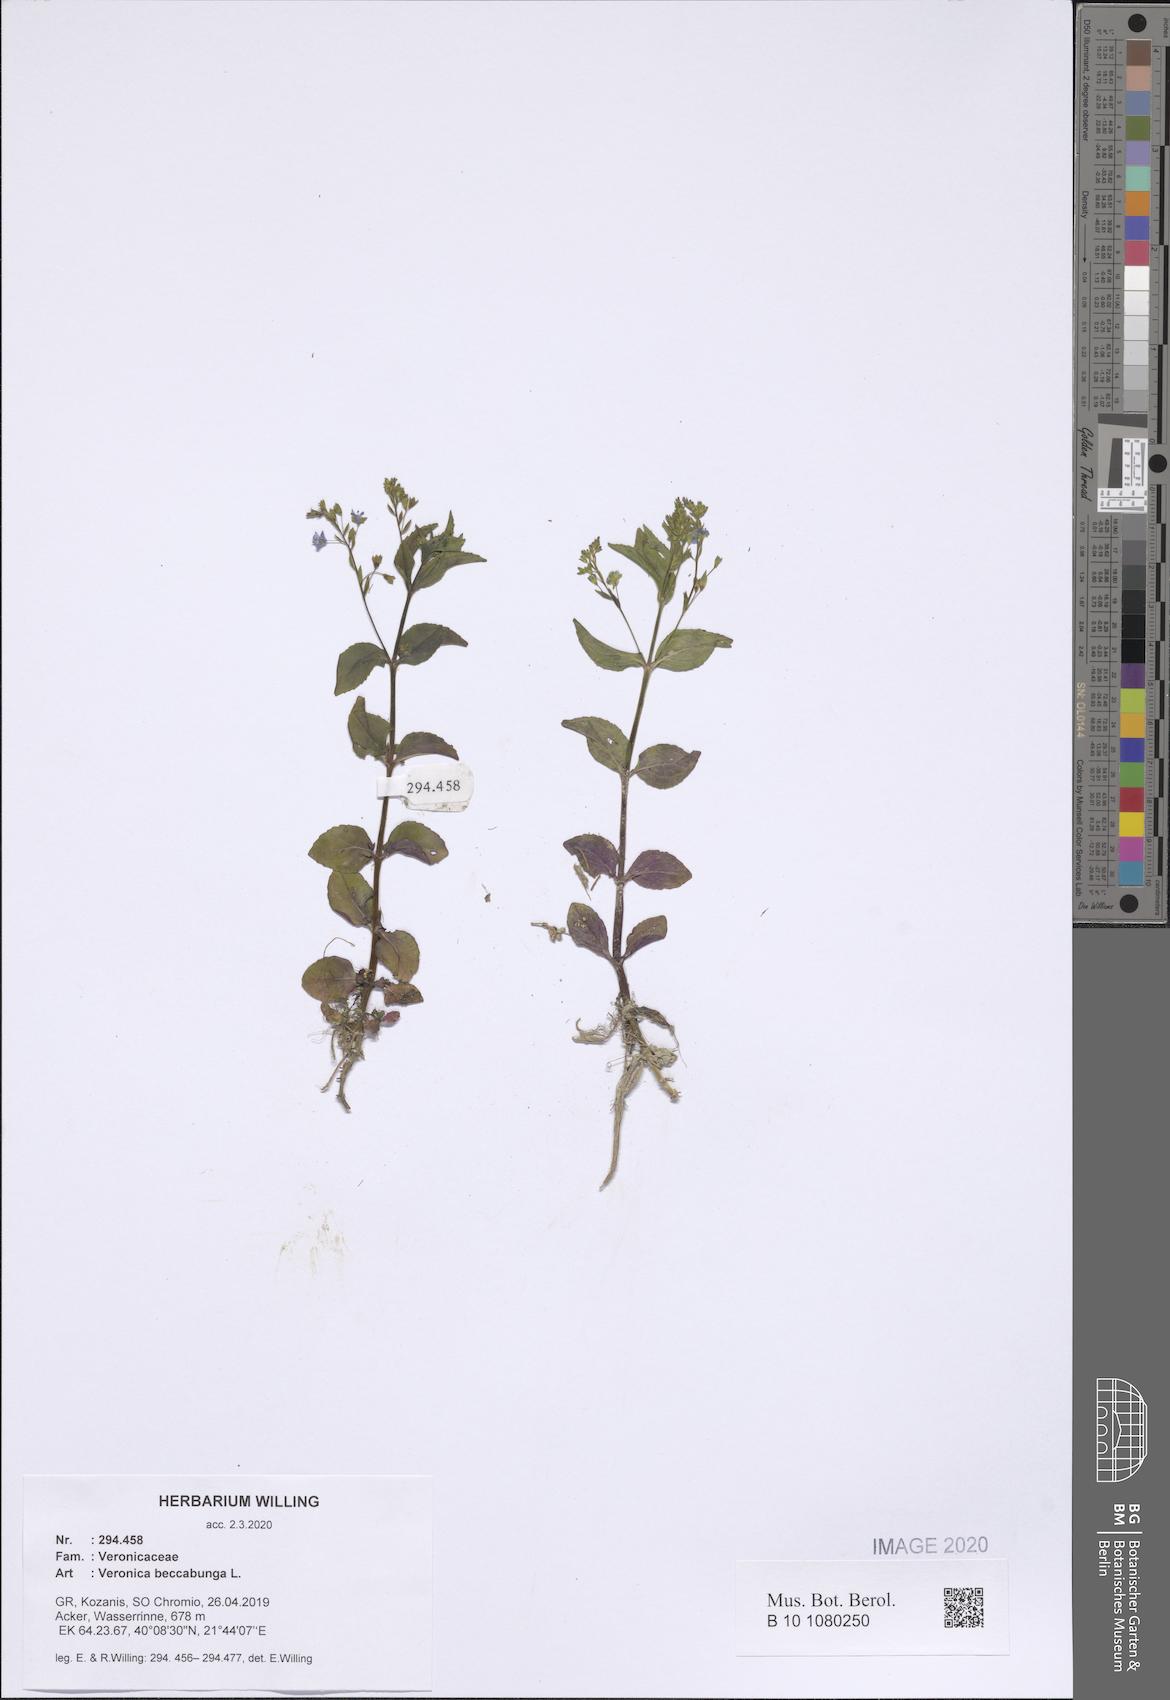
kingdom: Plantae
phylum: Tracheophyta
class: Magnoliopsida
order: Lamiales
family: Plantaginaceae
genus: Veronica
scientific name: Veronica beccabunga
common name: Brooklime
